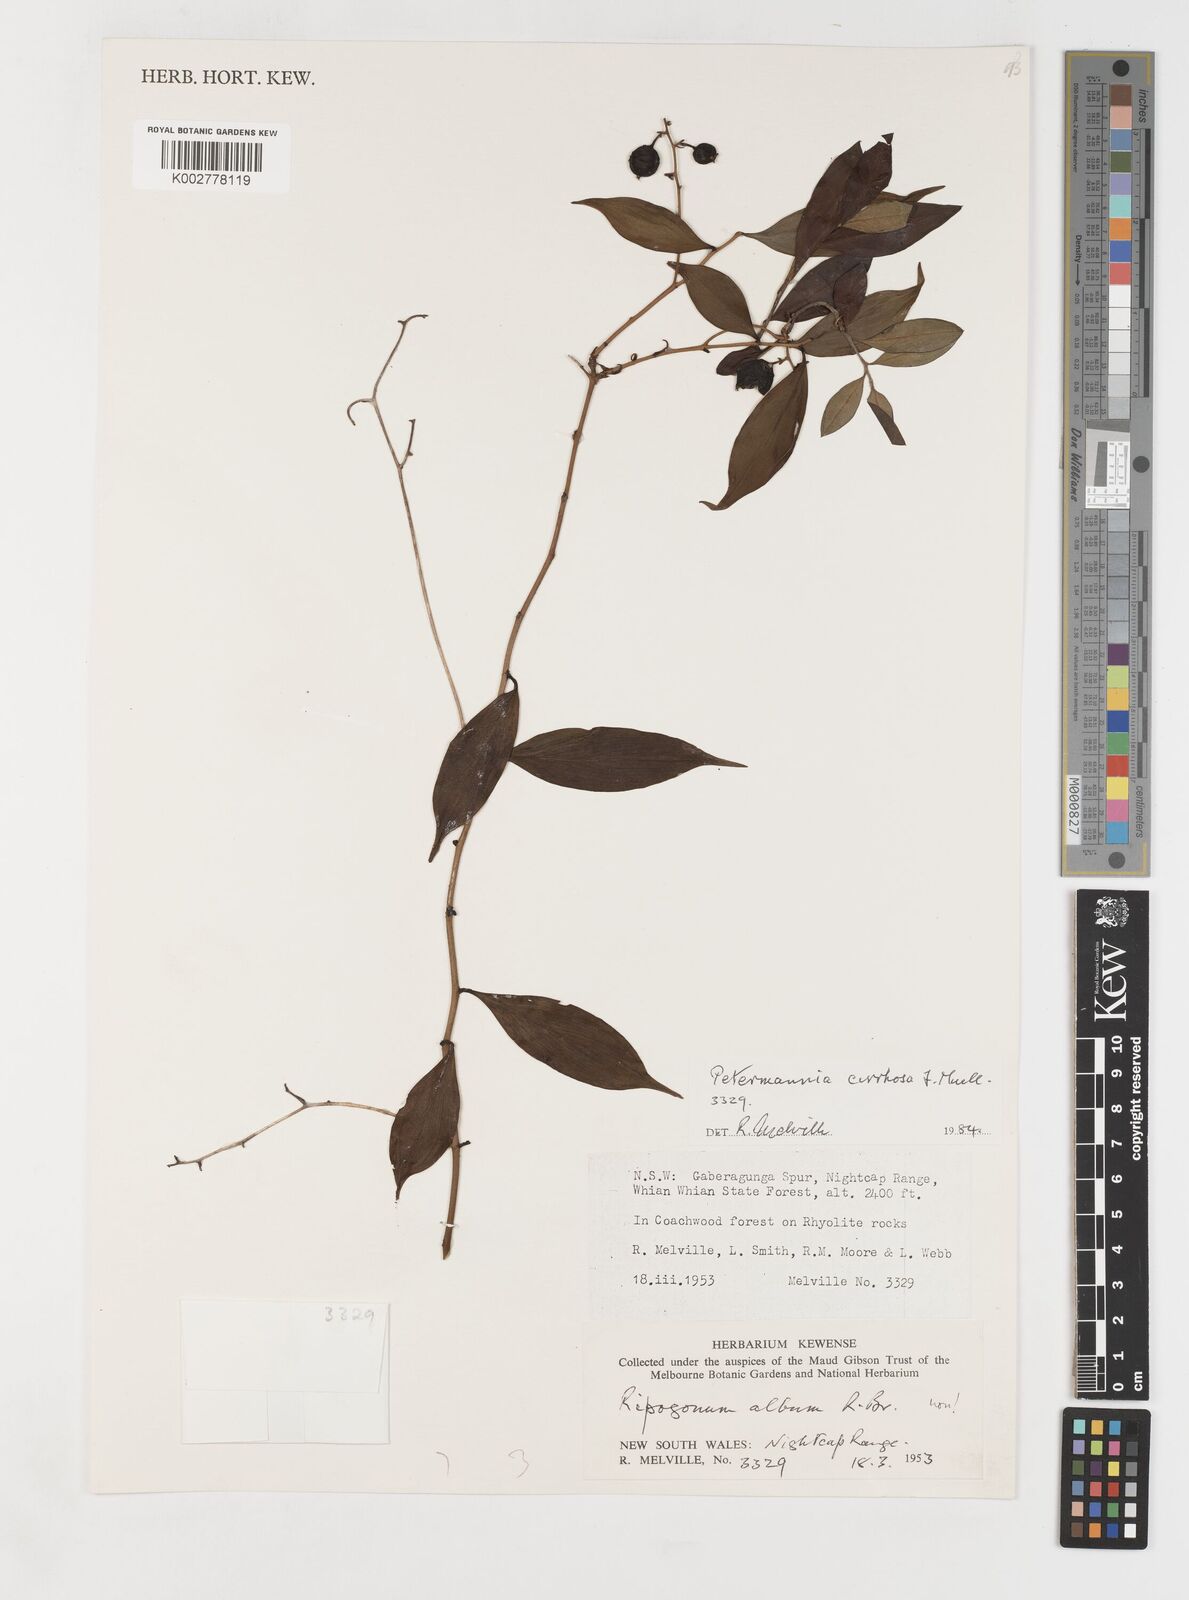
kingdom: Plantae
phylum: Tracheophyta
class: Liliopsida
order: Liliales
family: Petermanniaceae
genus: Petermannia
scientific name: Petermannia cirrosa
